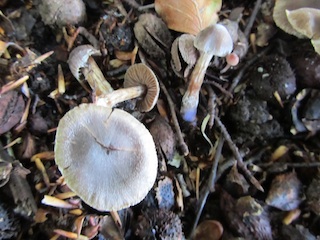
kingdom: Fungi
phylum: Basidiomycota
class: Agaricomycetes
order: Agaricales
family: Cortinariaceae
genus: Cortinarius
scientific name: Cortinarius
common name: pelargonie-slørhat
